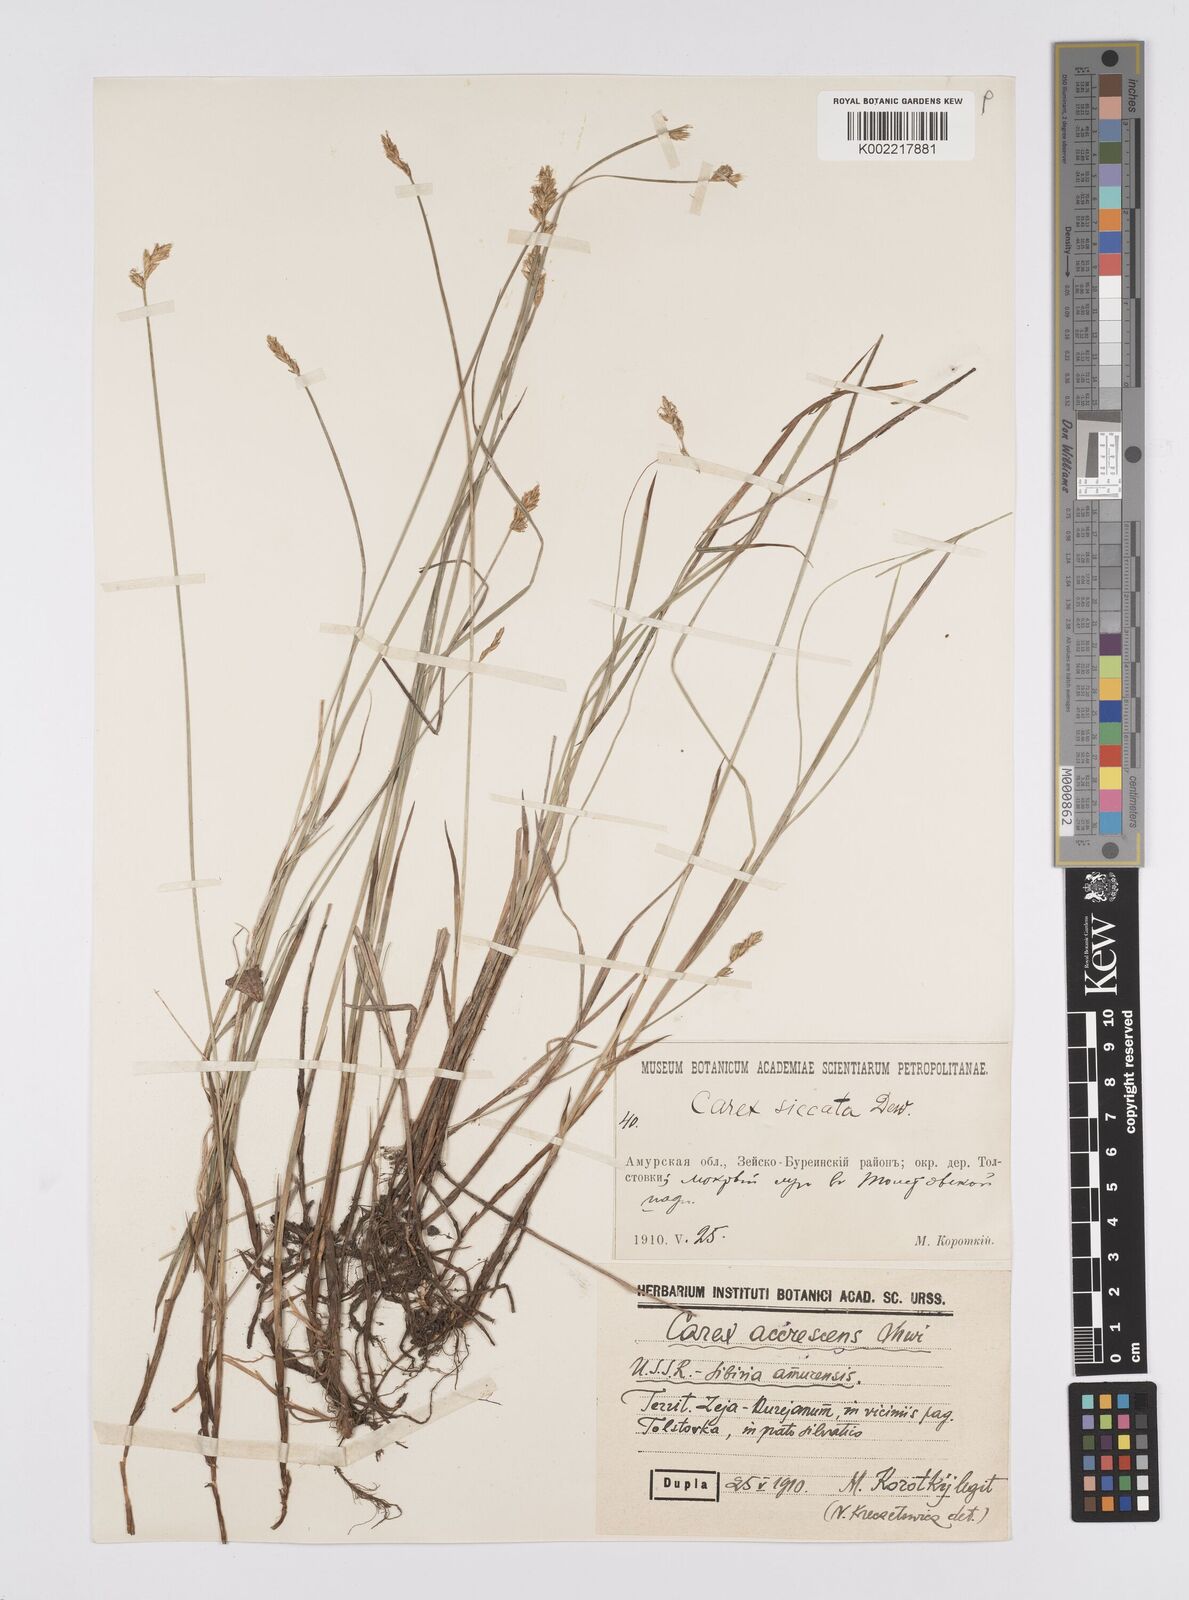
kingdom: Plantae
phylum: Tracheophyta
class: Liliopsida
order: Poales
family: Cyperaceae
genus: Carex
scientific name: Carex siccata
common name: Dry sedge
